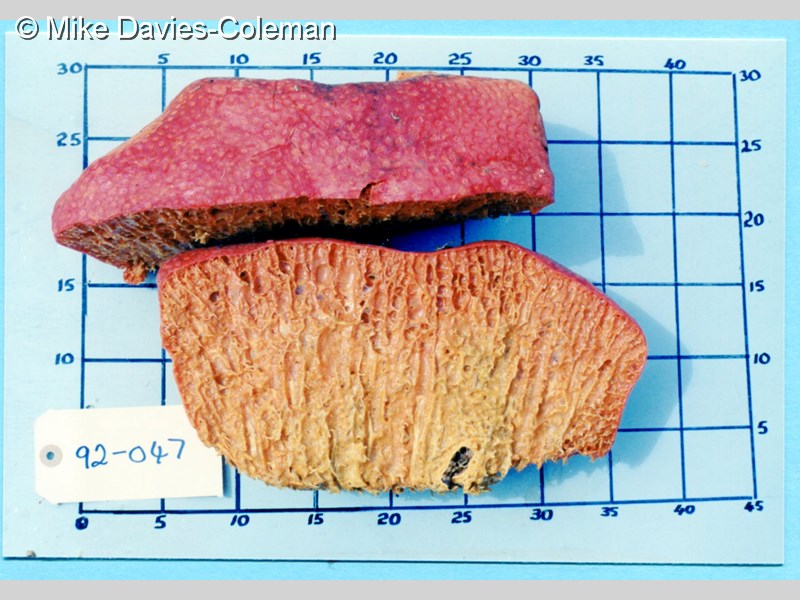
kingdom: Animalia
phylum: Porifera
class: Demospongiae
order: Clionaida
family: Clionaidae
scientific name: Clionaidae
